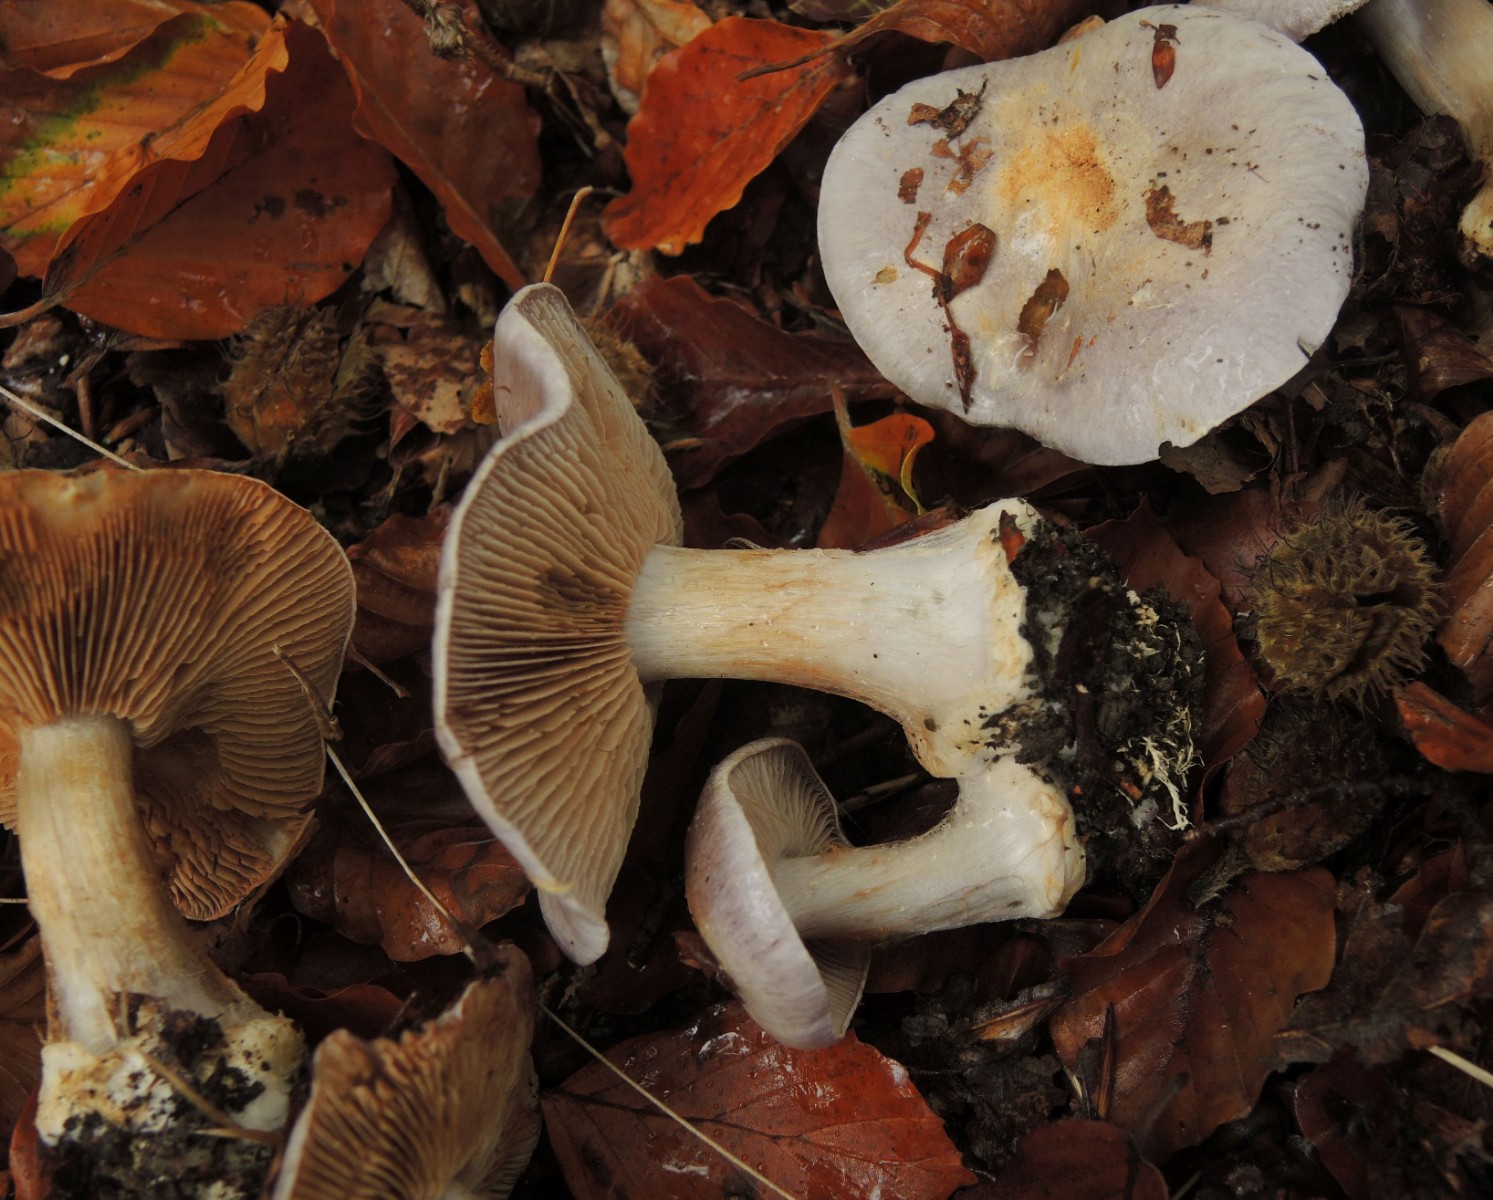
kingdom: Fungi
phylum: Basidiomycota
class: Agaricomycetes
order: Agaricales
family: Cortinariaceae
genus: Cortinarius
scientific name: Cortinarius caerulescens
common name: blåkødet slørhat
